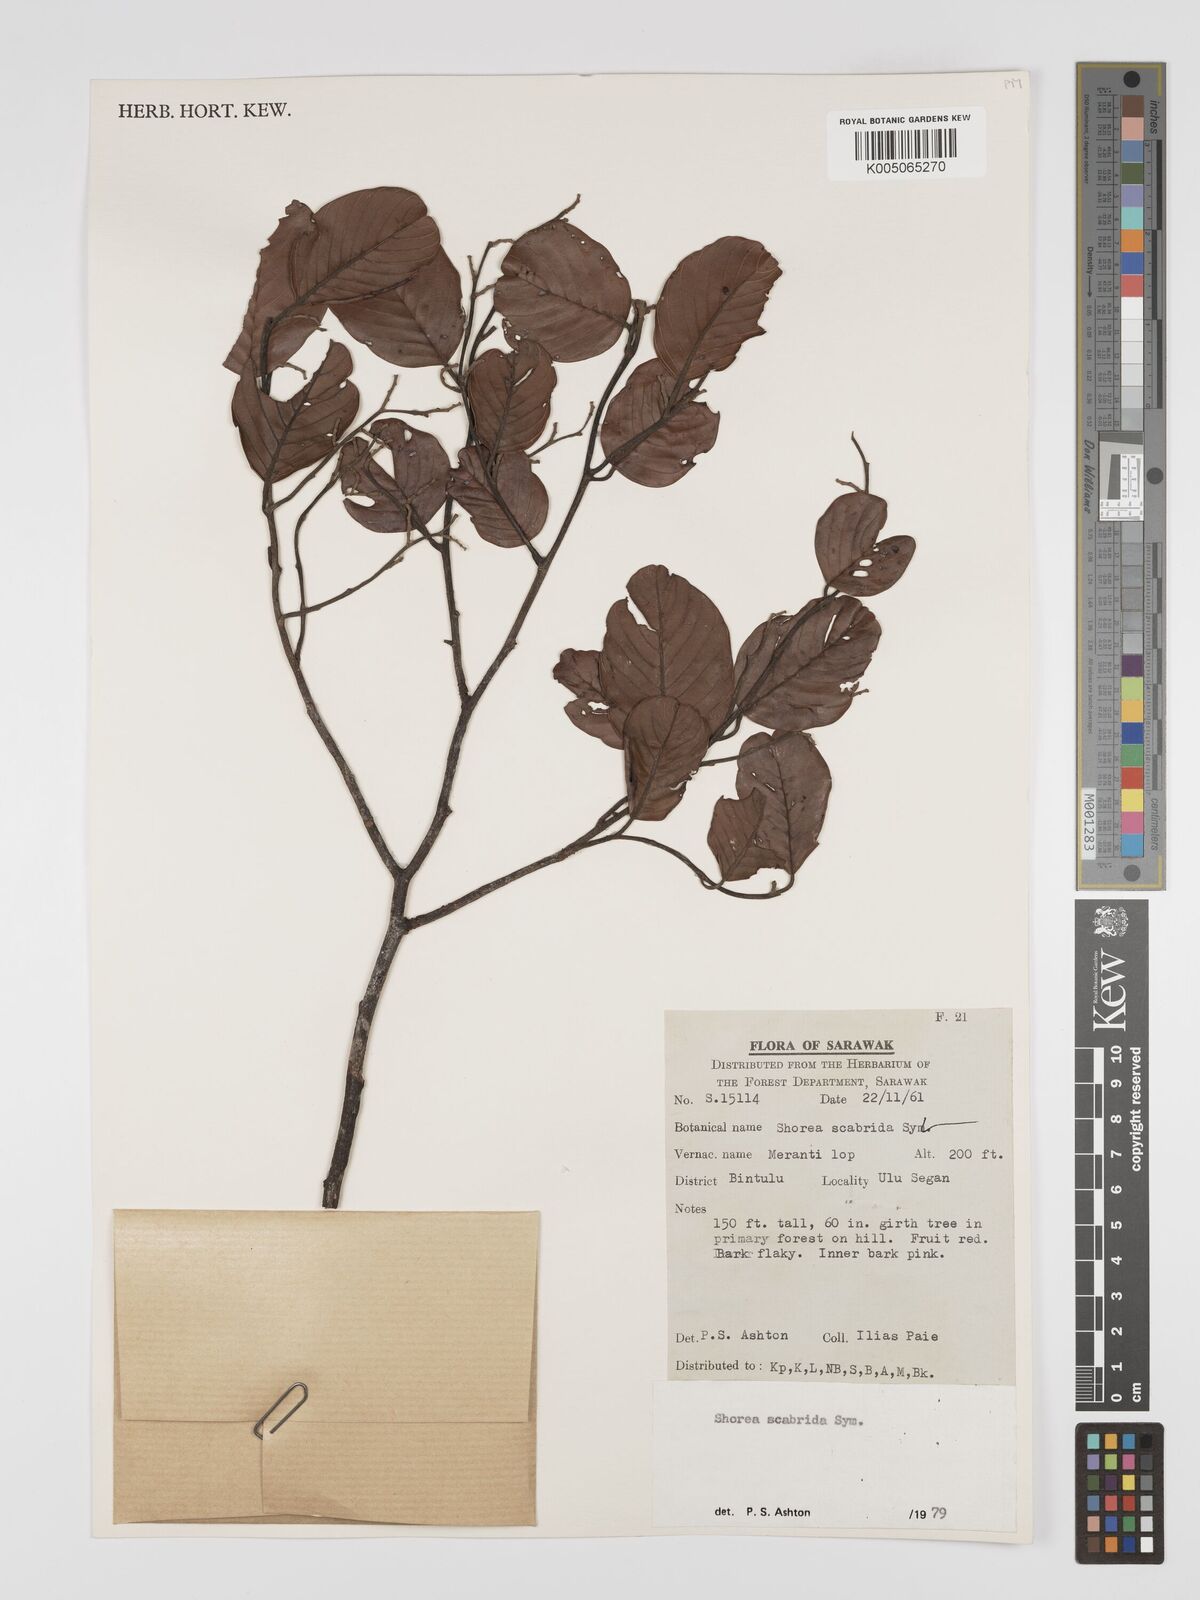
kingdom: Plantae
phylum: Tracheophyta
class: Magnoliopsida
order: Malvales
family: Dipterocarpaceae
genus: Shorea
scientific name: Shorea scabrida
